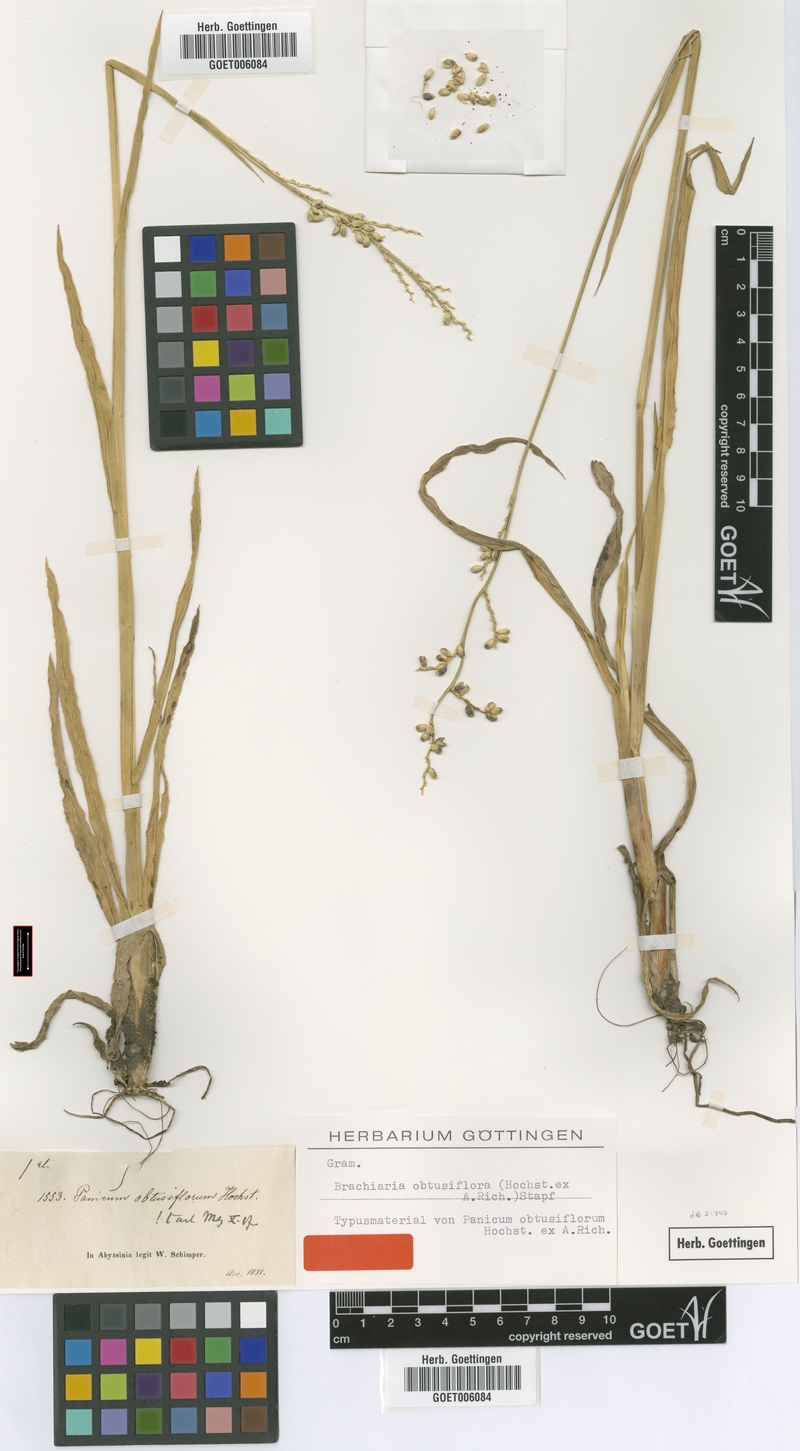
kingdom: Plantae
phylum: Tracheophyta
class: Liliopsida
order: Poales
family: Poaceae
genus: Echinochloa
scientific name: Echinochloa rotundiflora
